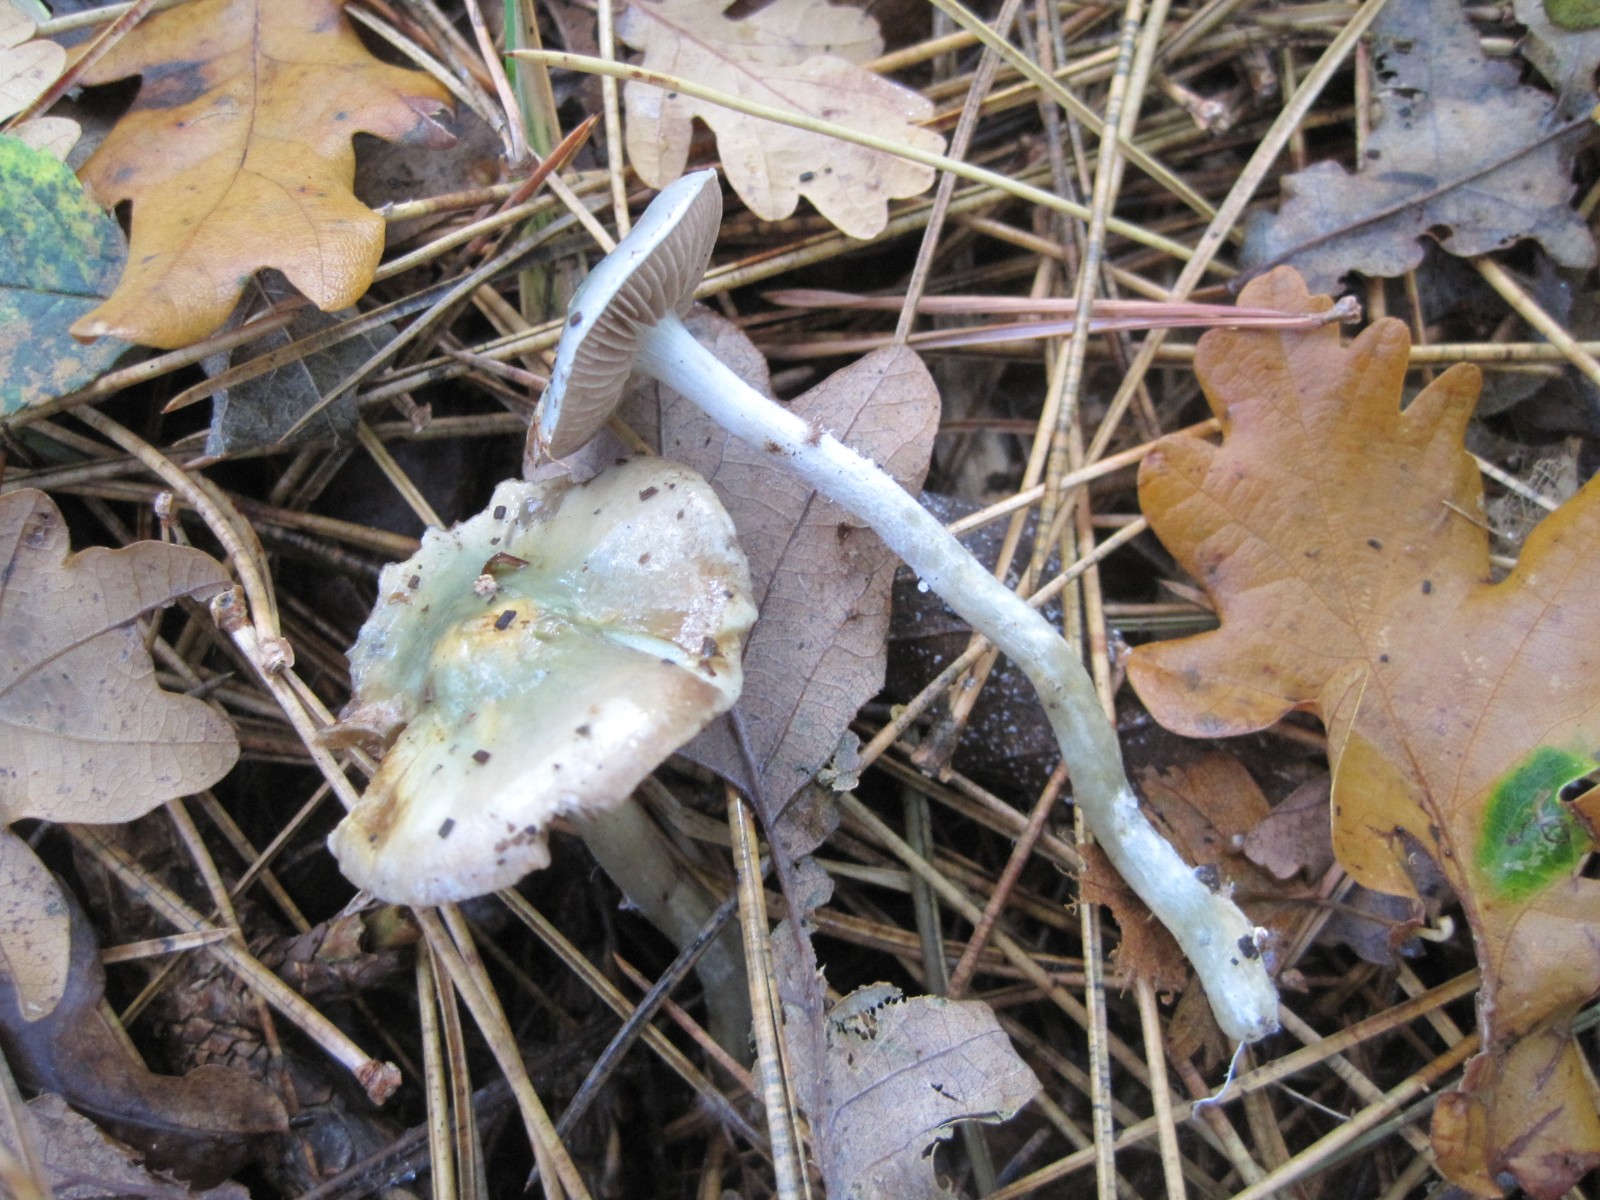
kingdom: Fungi
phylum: Basidiomycota
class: Agaricomycetes
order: Agaricales
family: Strophariaceae
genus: Stropharia
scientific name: Stropharia aeruginosa
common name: spanskgrøn bredblad
